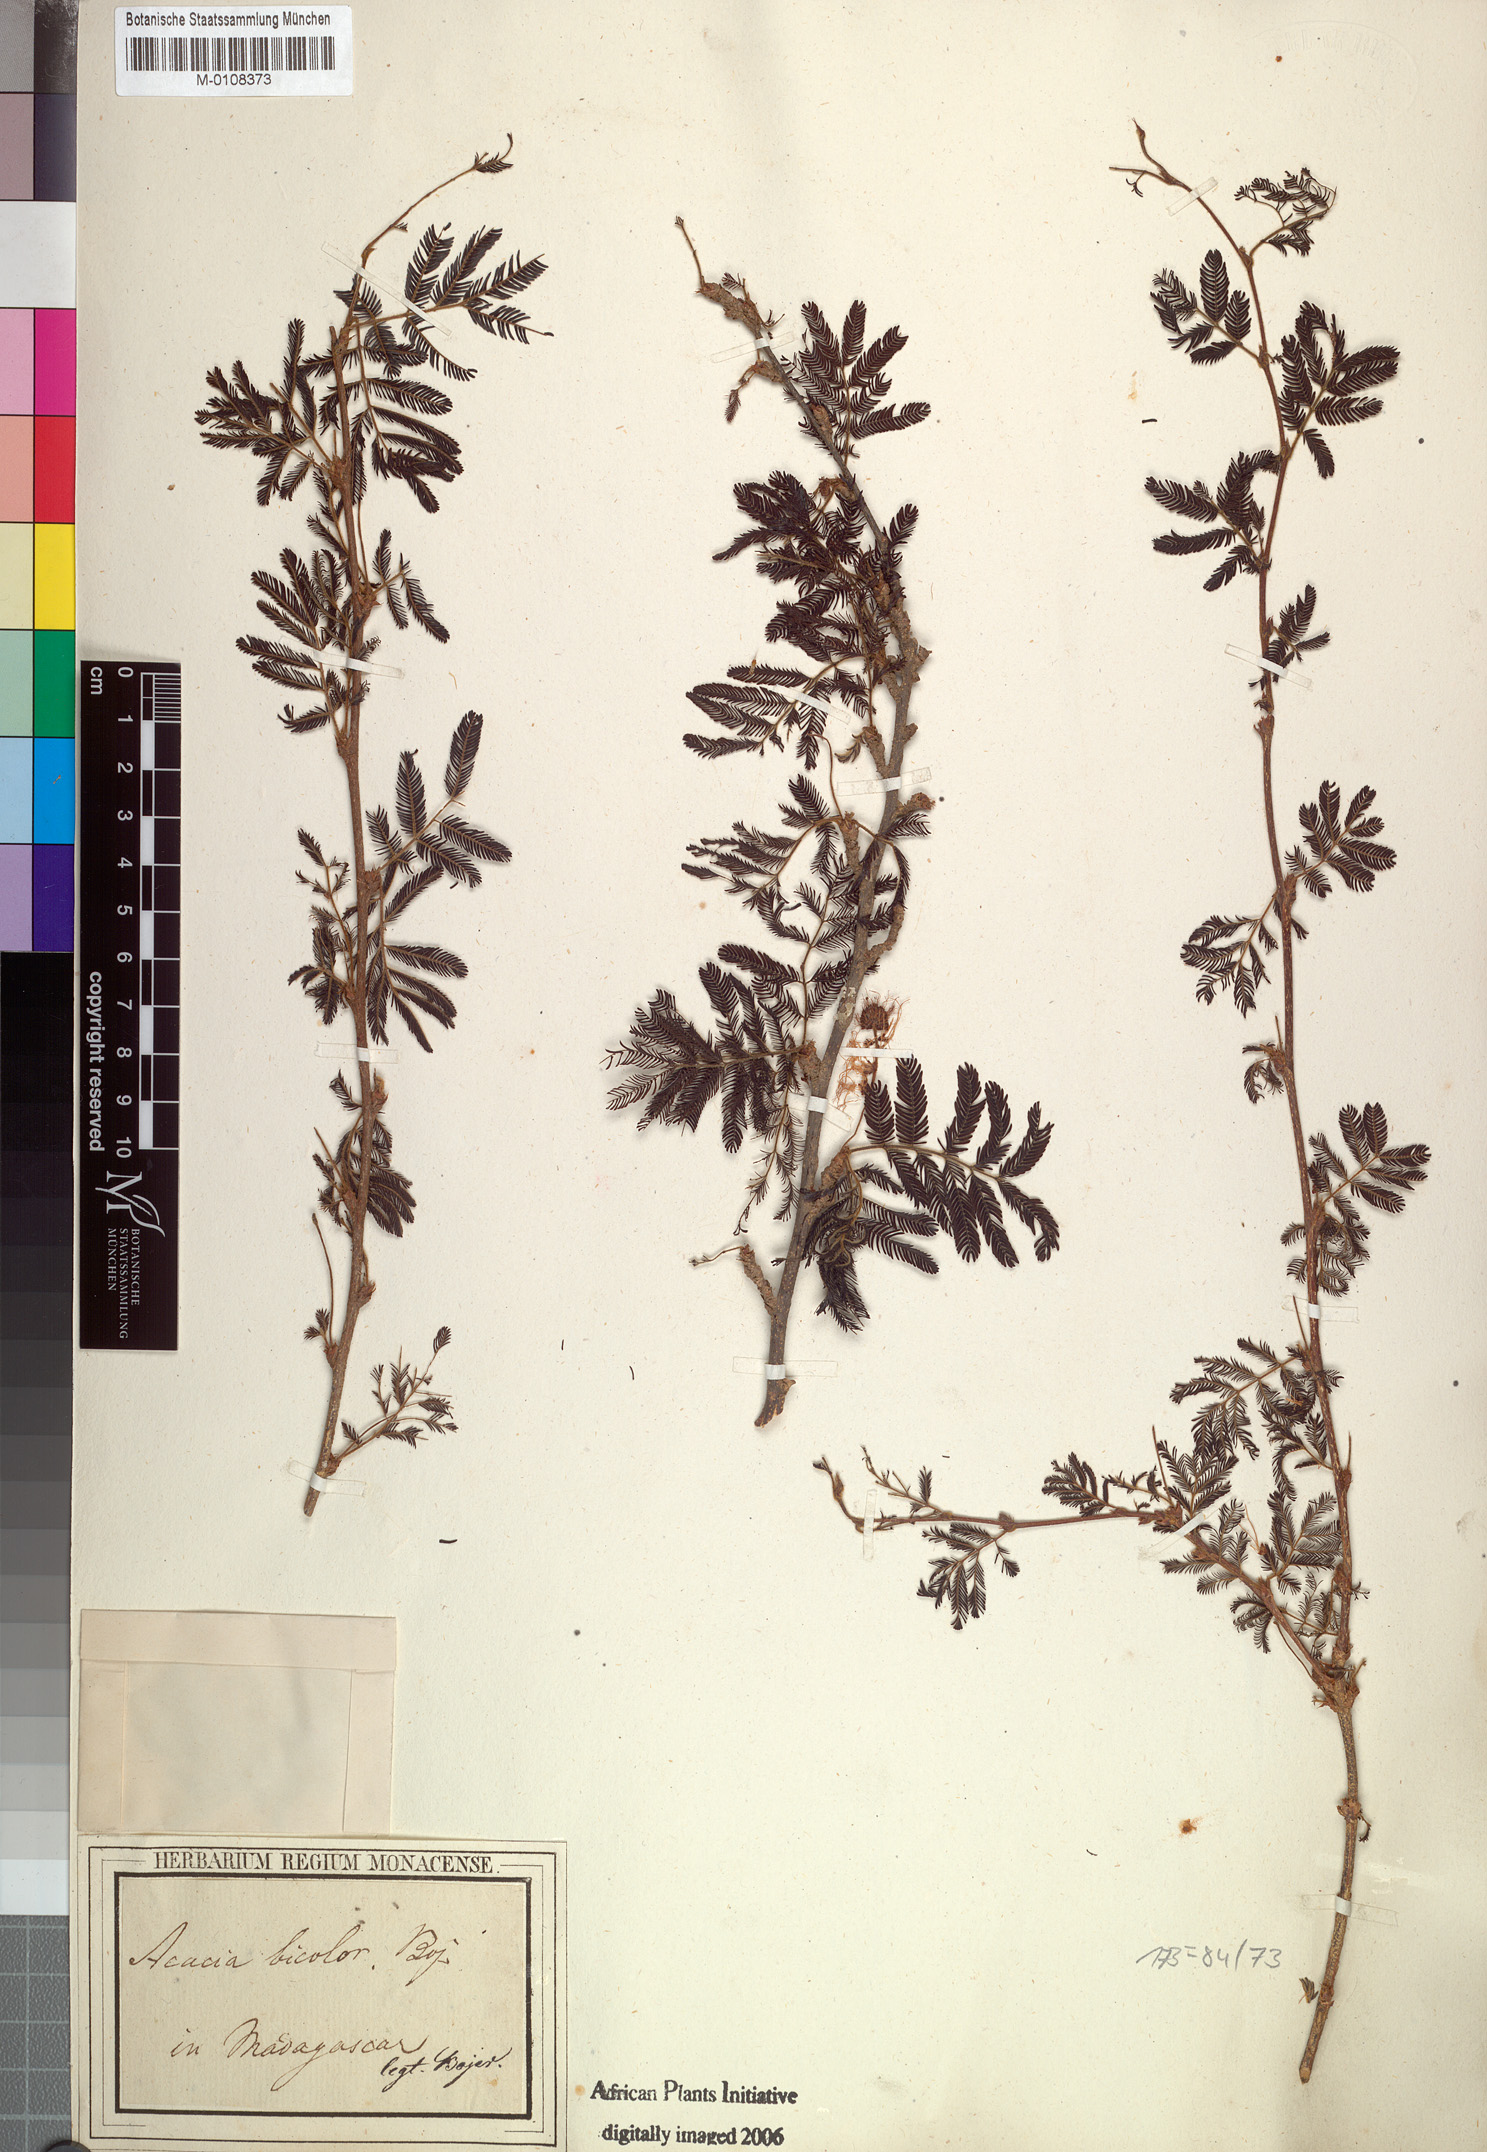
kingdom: Plantae
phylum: Tracheophyta
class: Magnoliopsida
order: Fabales
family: Fabaceae
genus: Acaciella
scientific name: Acaciella bicolor
